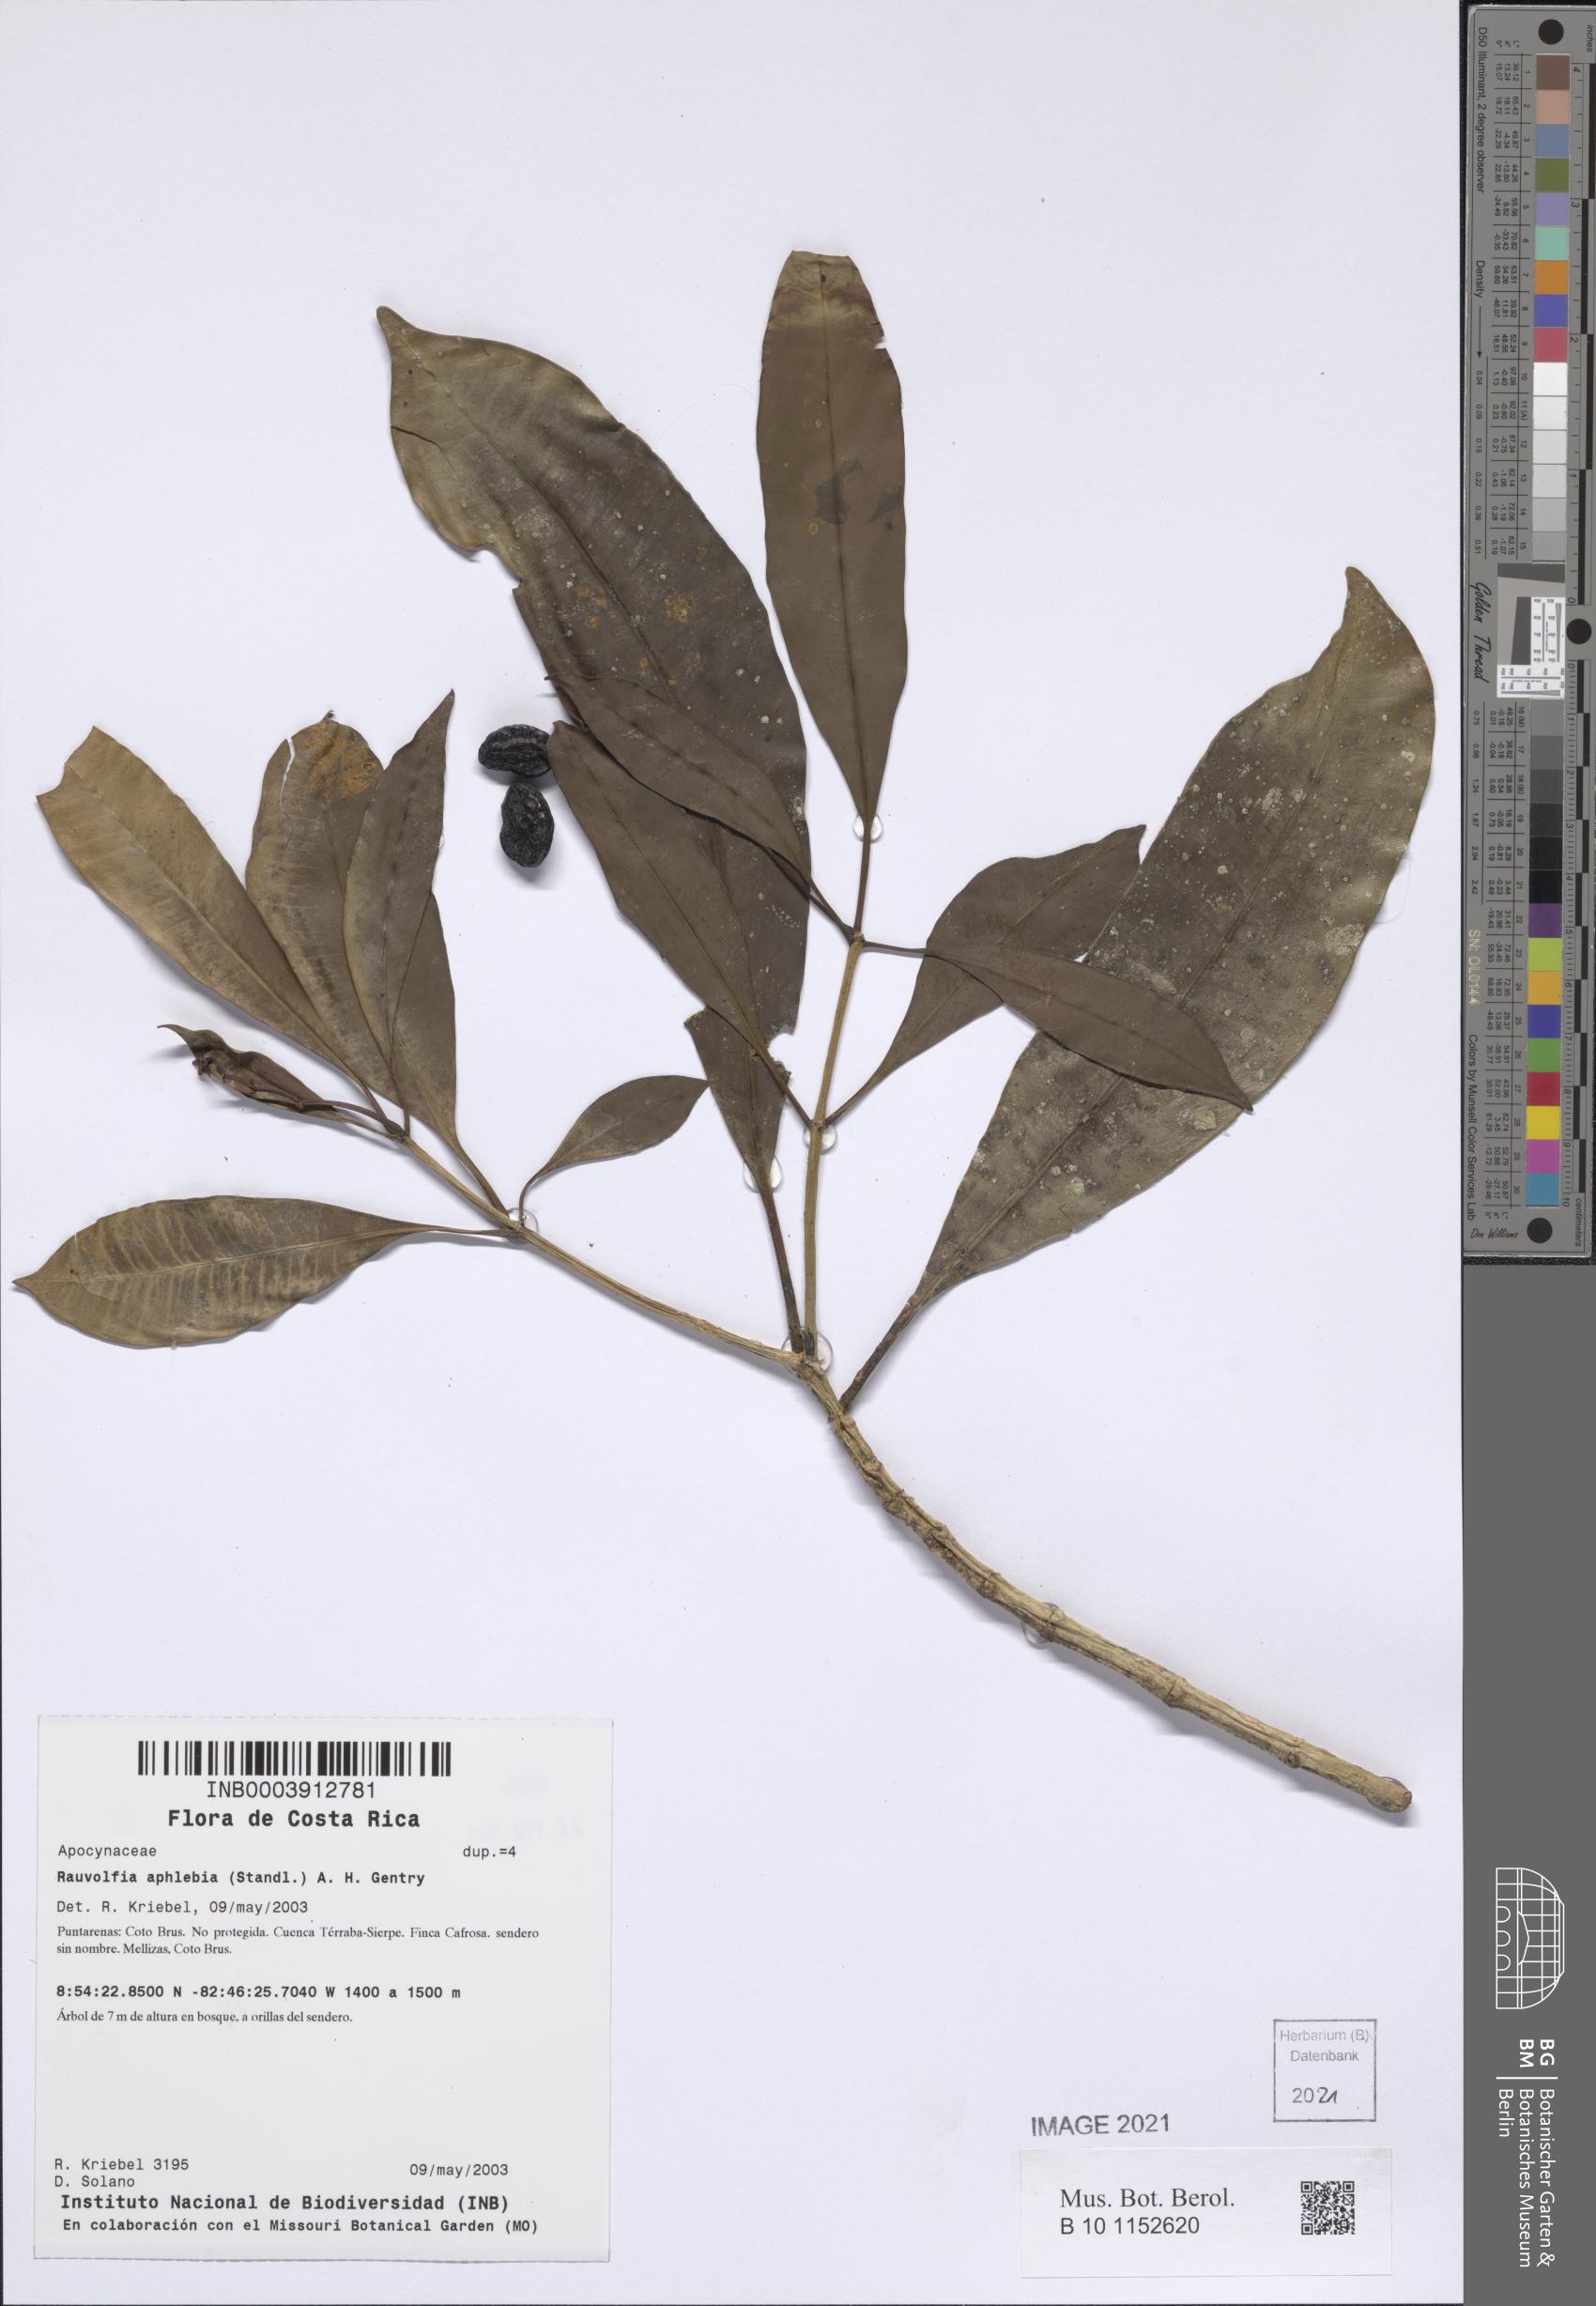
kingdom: Plantae
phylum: Tracheophyta
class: Magnoliopsida
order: Gentianales
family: Apocynaceae
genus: Rauvolfia
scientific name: Rauvolfia aphlebia
